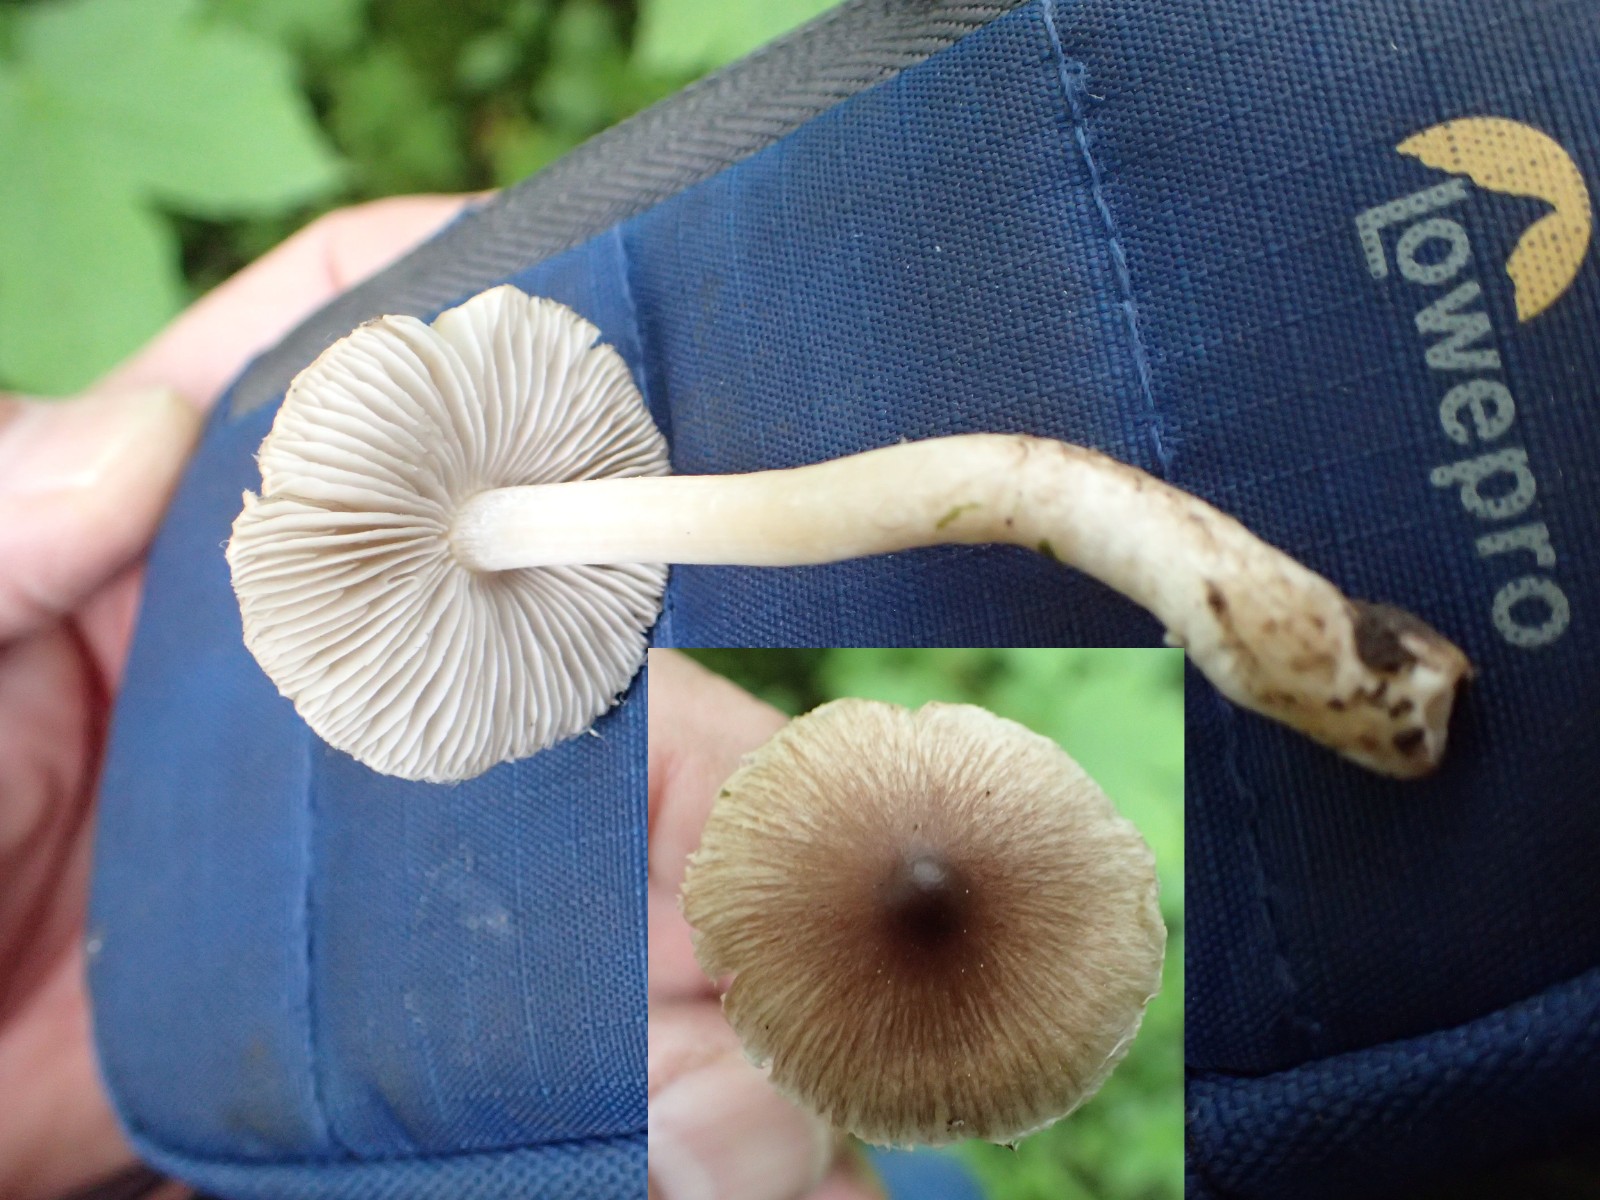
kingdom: Fungi
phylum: Basidiomycota
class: Agaricomycetes
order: Agaricales
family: Inocybaceae
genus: Inocybe
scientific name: Inocybe
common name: trævlhat
